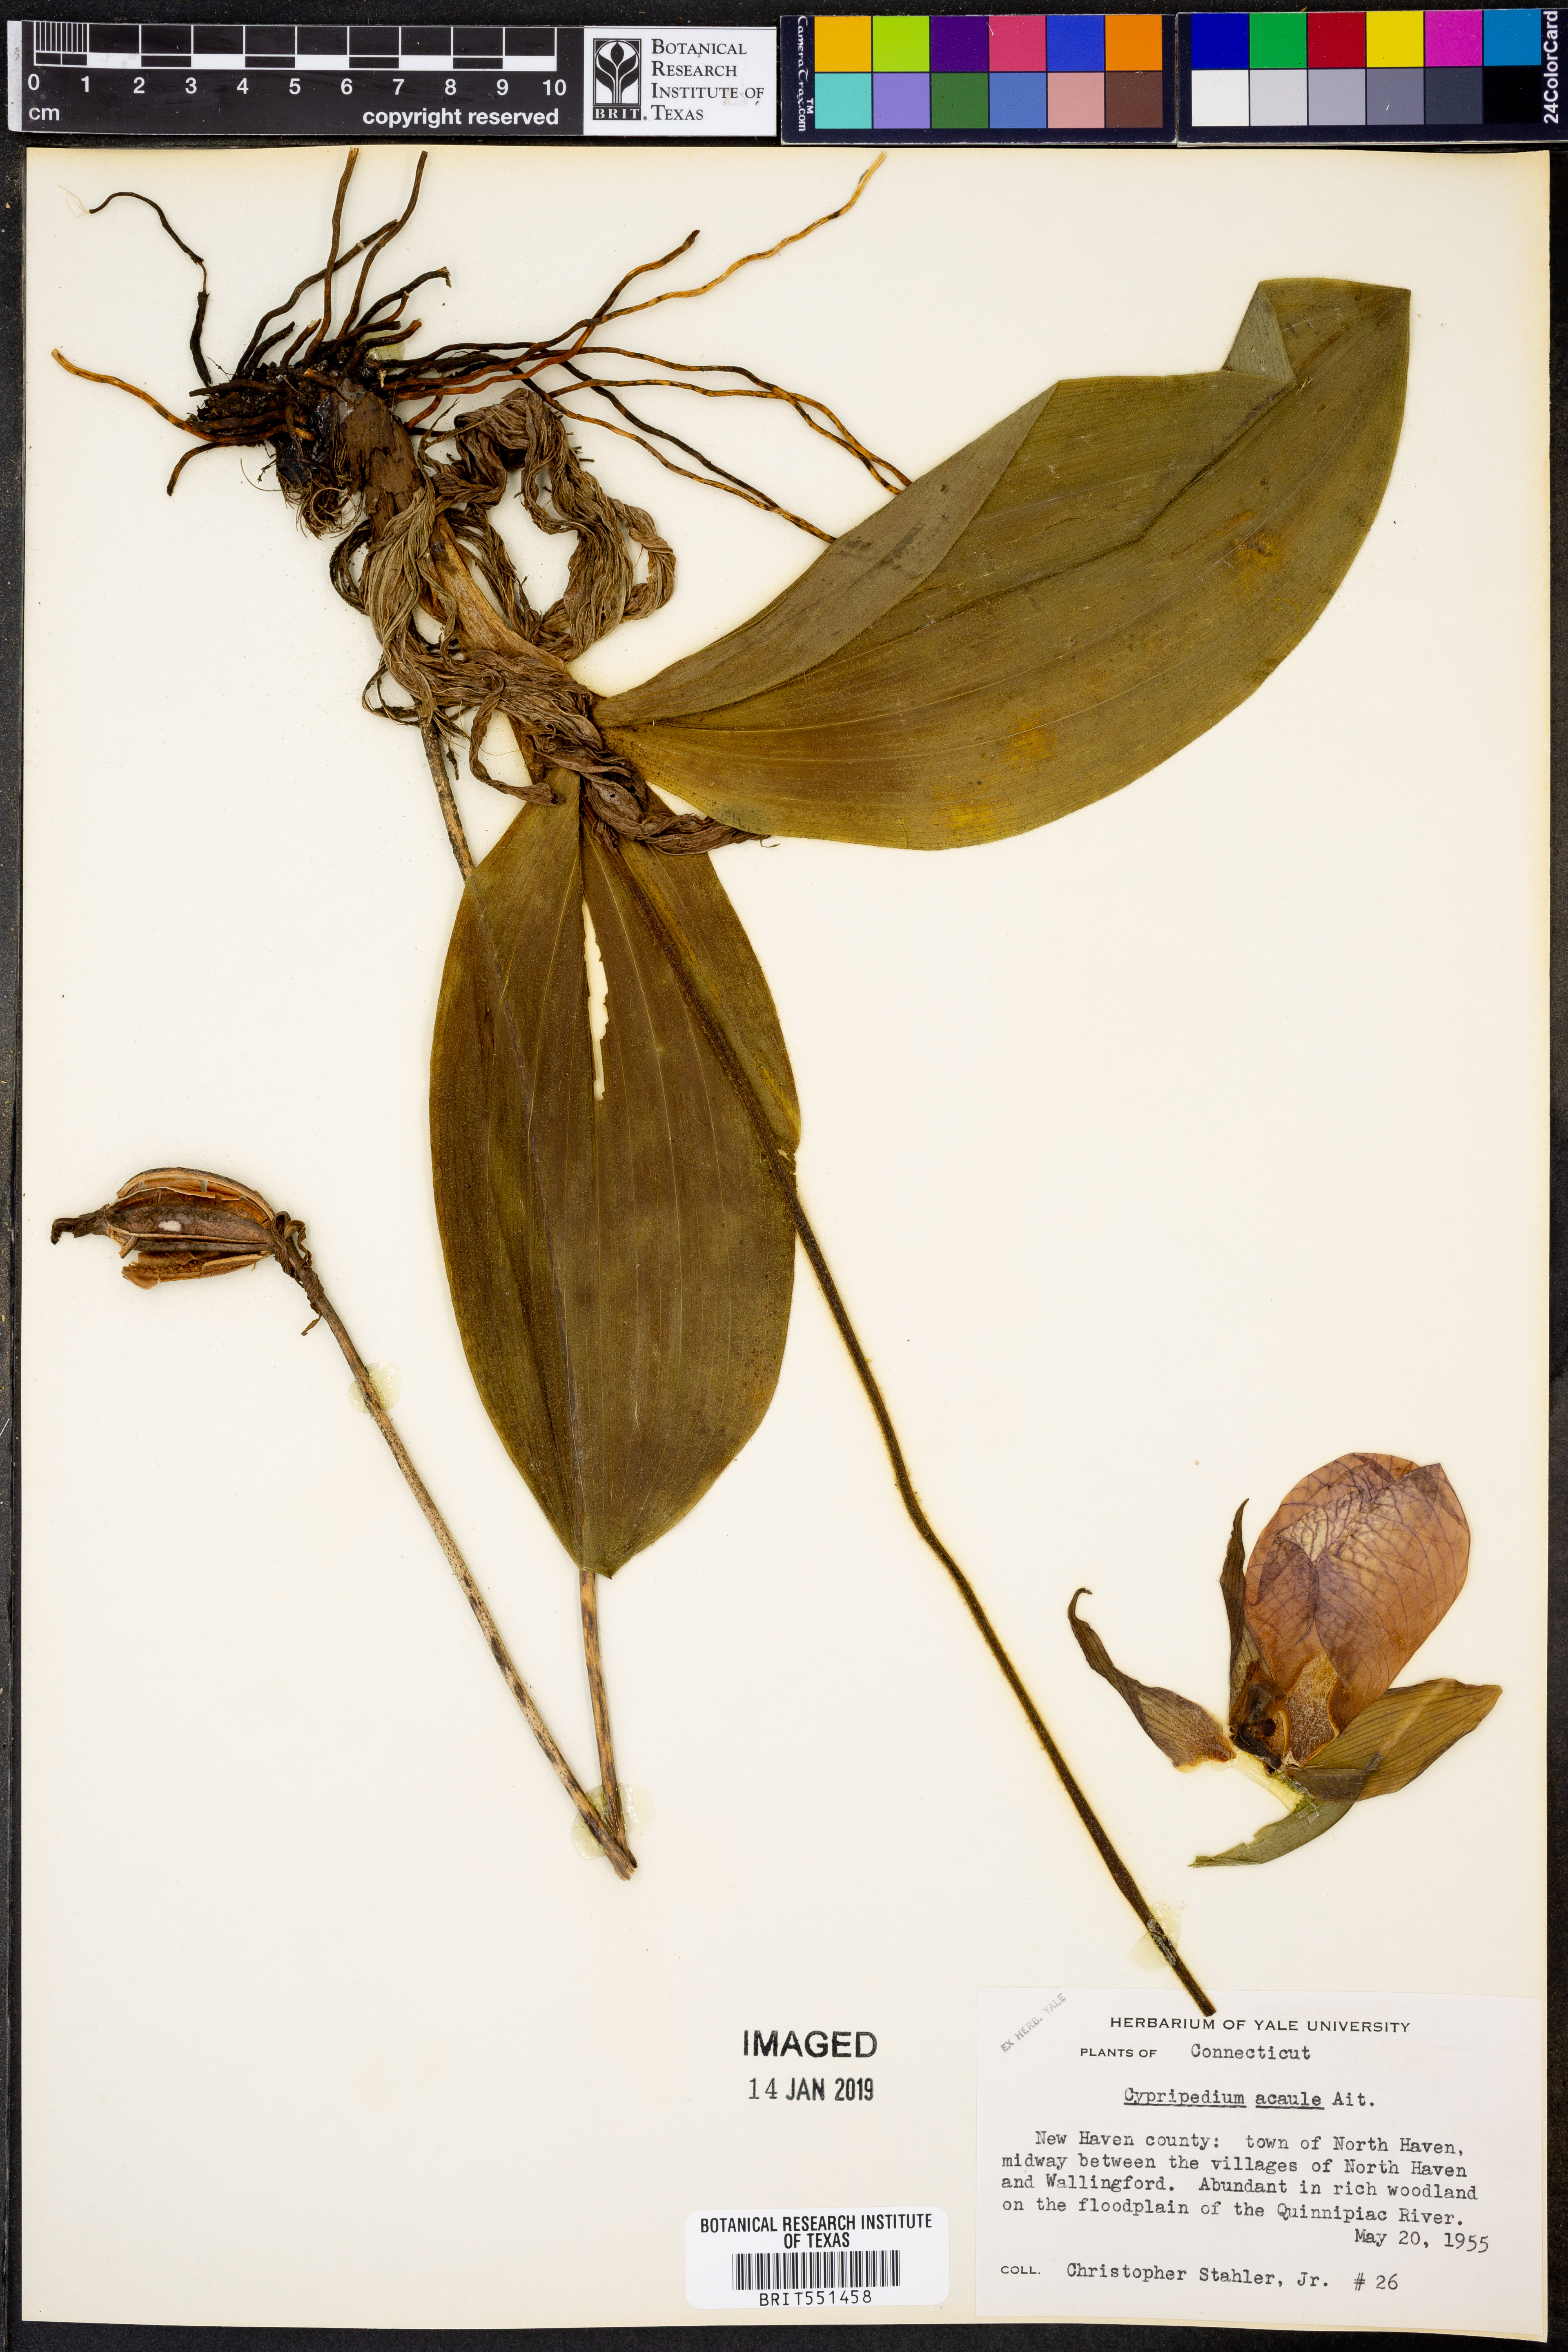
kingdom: Plantae
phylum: Tracheophyta
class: Liliopsida
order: Asparagales
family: Orchidaceae
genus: Cypripedium
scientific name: Cypripedium acaule
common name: Pink lady's-slipper
